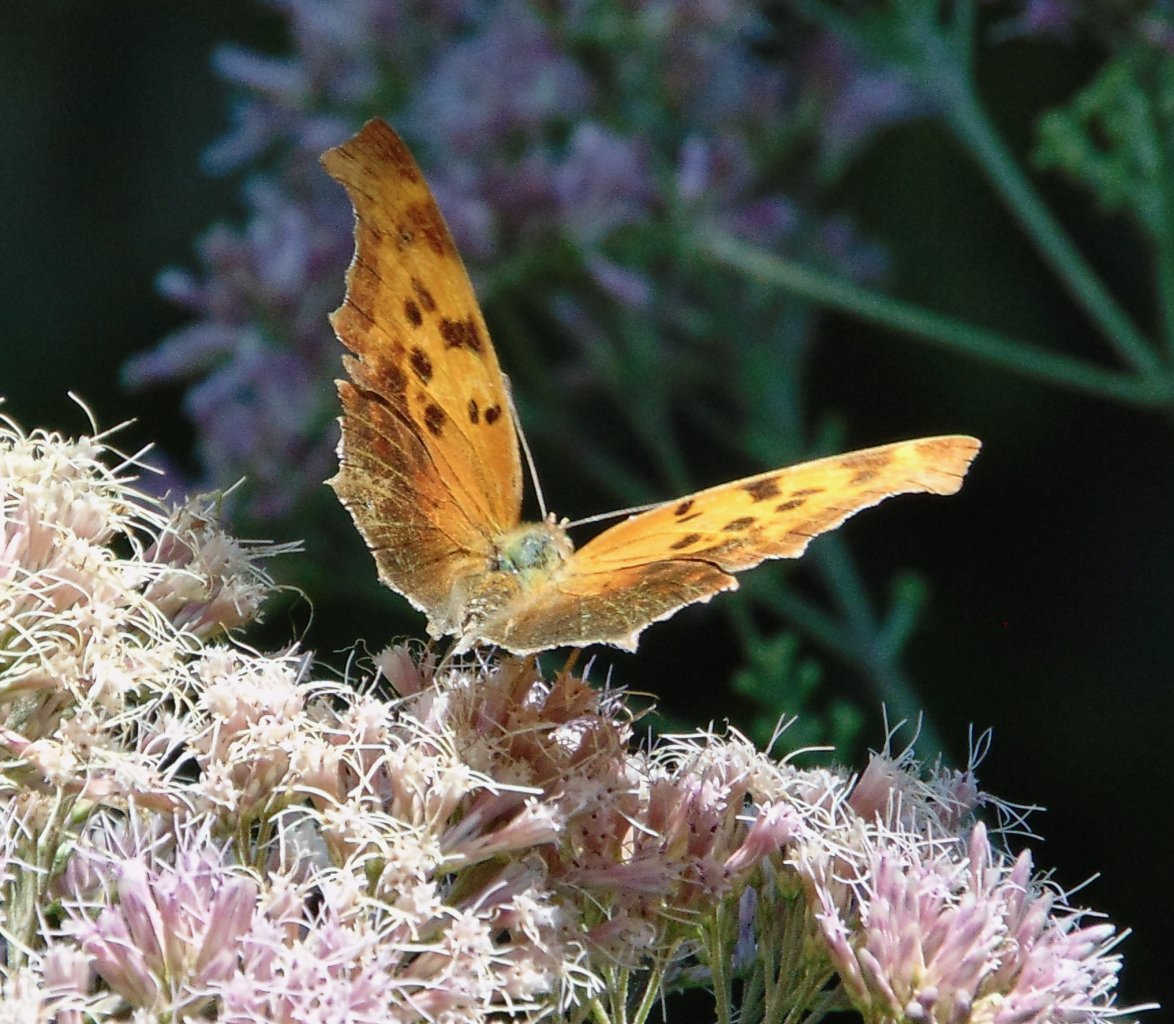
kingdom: Animalia
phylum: Arthropoda
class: Insecta
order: Lepidoptera
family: Nymphalidae
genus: Polygonia
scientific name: Polygonia interrogationis
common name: Question Mark
